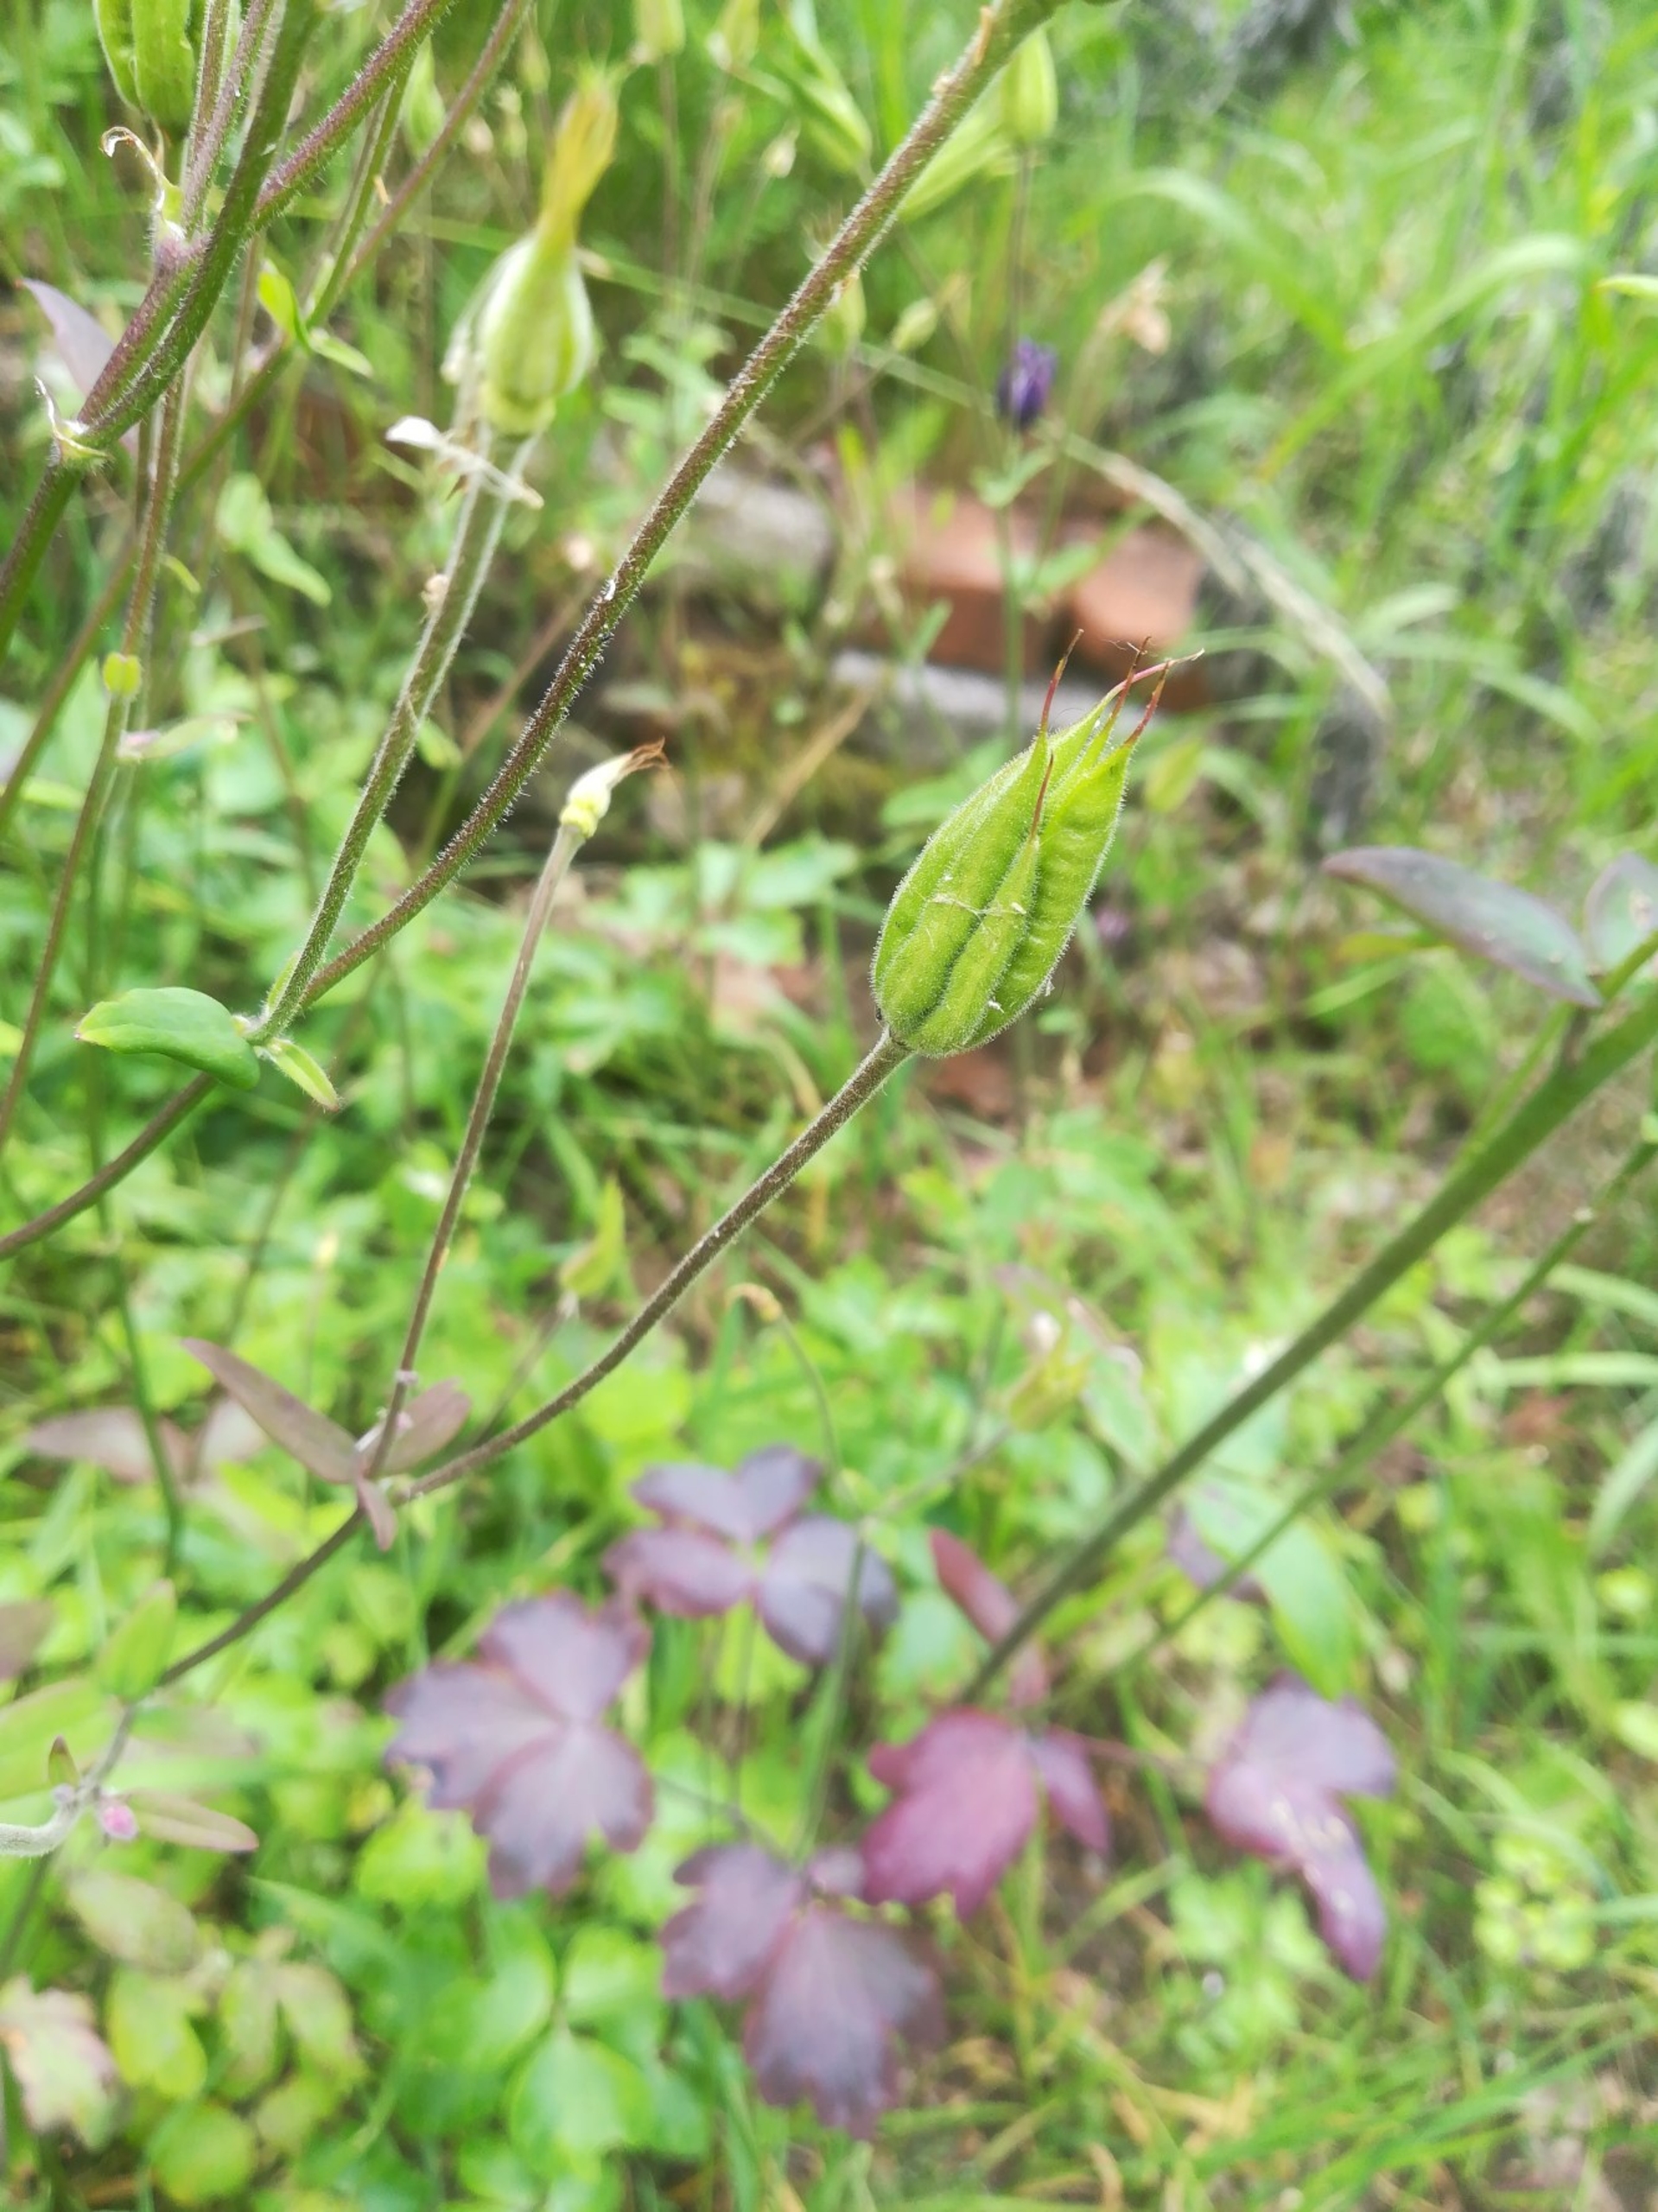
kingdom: Plantae
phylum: Tracheophyta
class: Magnoliopsida
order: Ranunculales
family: Ranunculaceae
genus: Aquilegia
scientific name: Aquilegia vulgaris
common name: Akeleje
